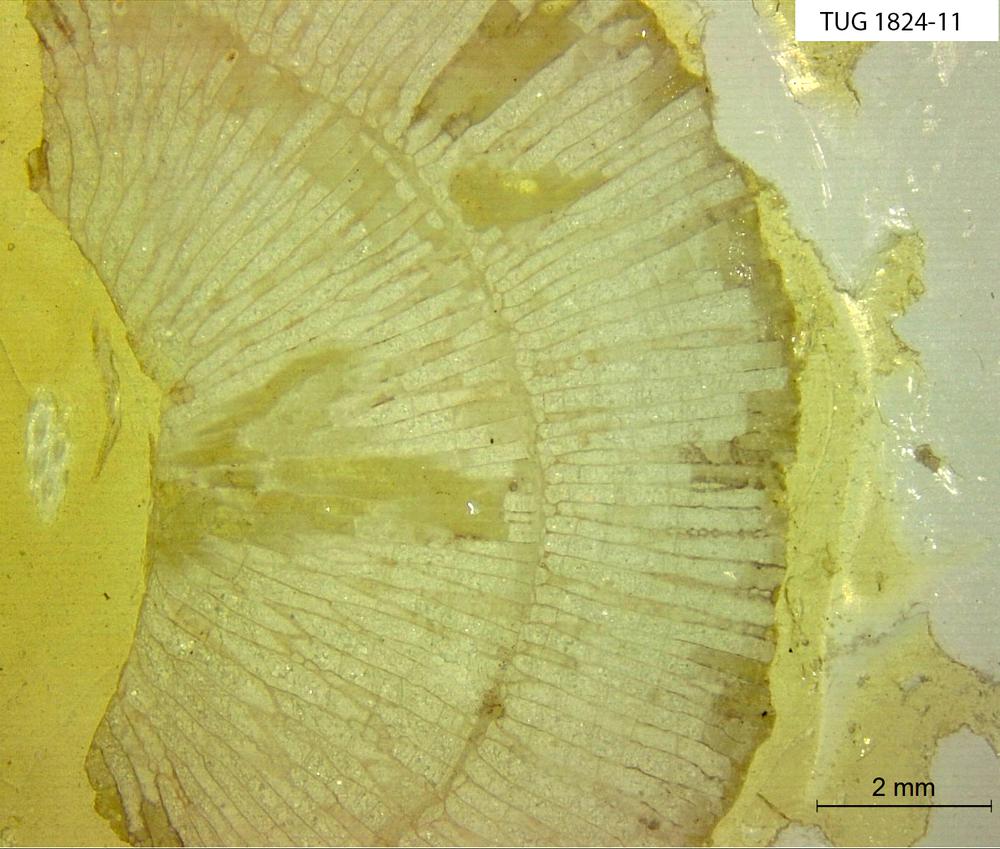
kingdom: Animalia
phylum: Bryozoa
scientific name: Bryozoa
